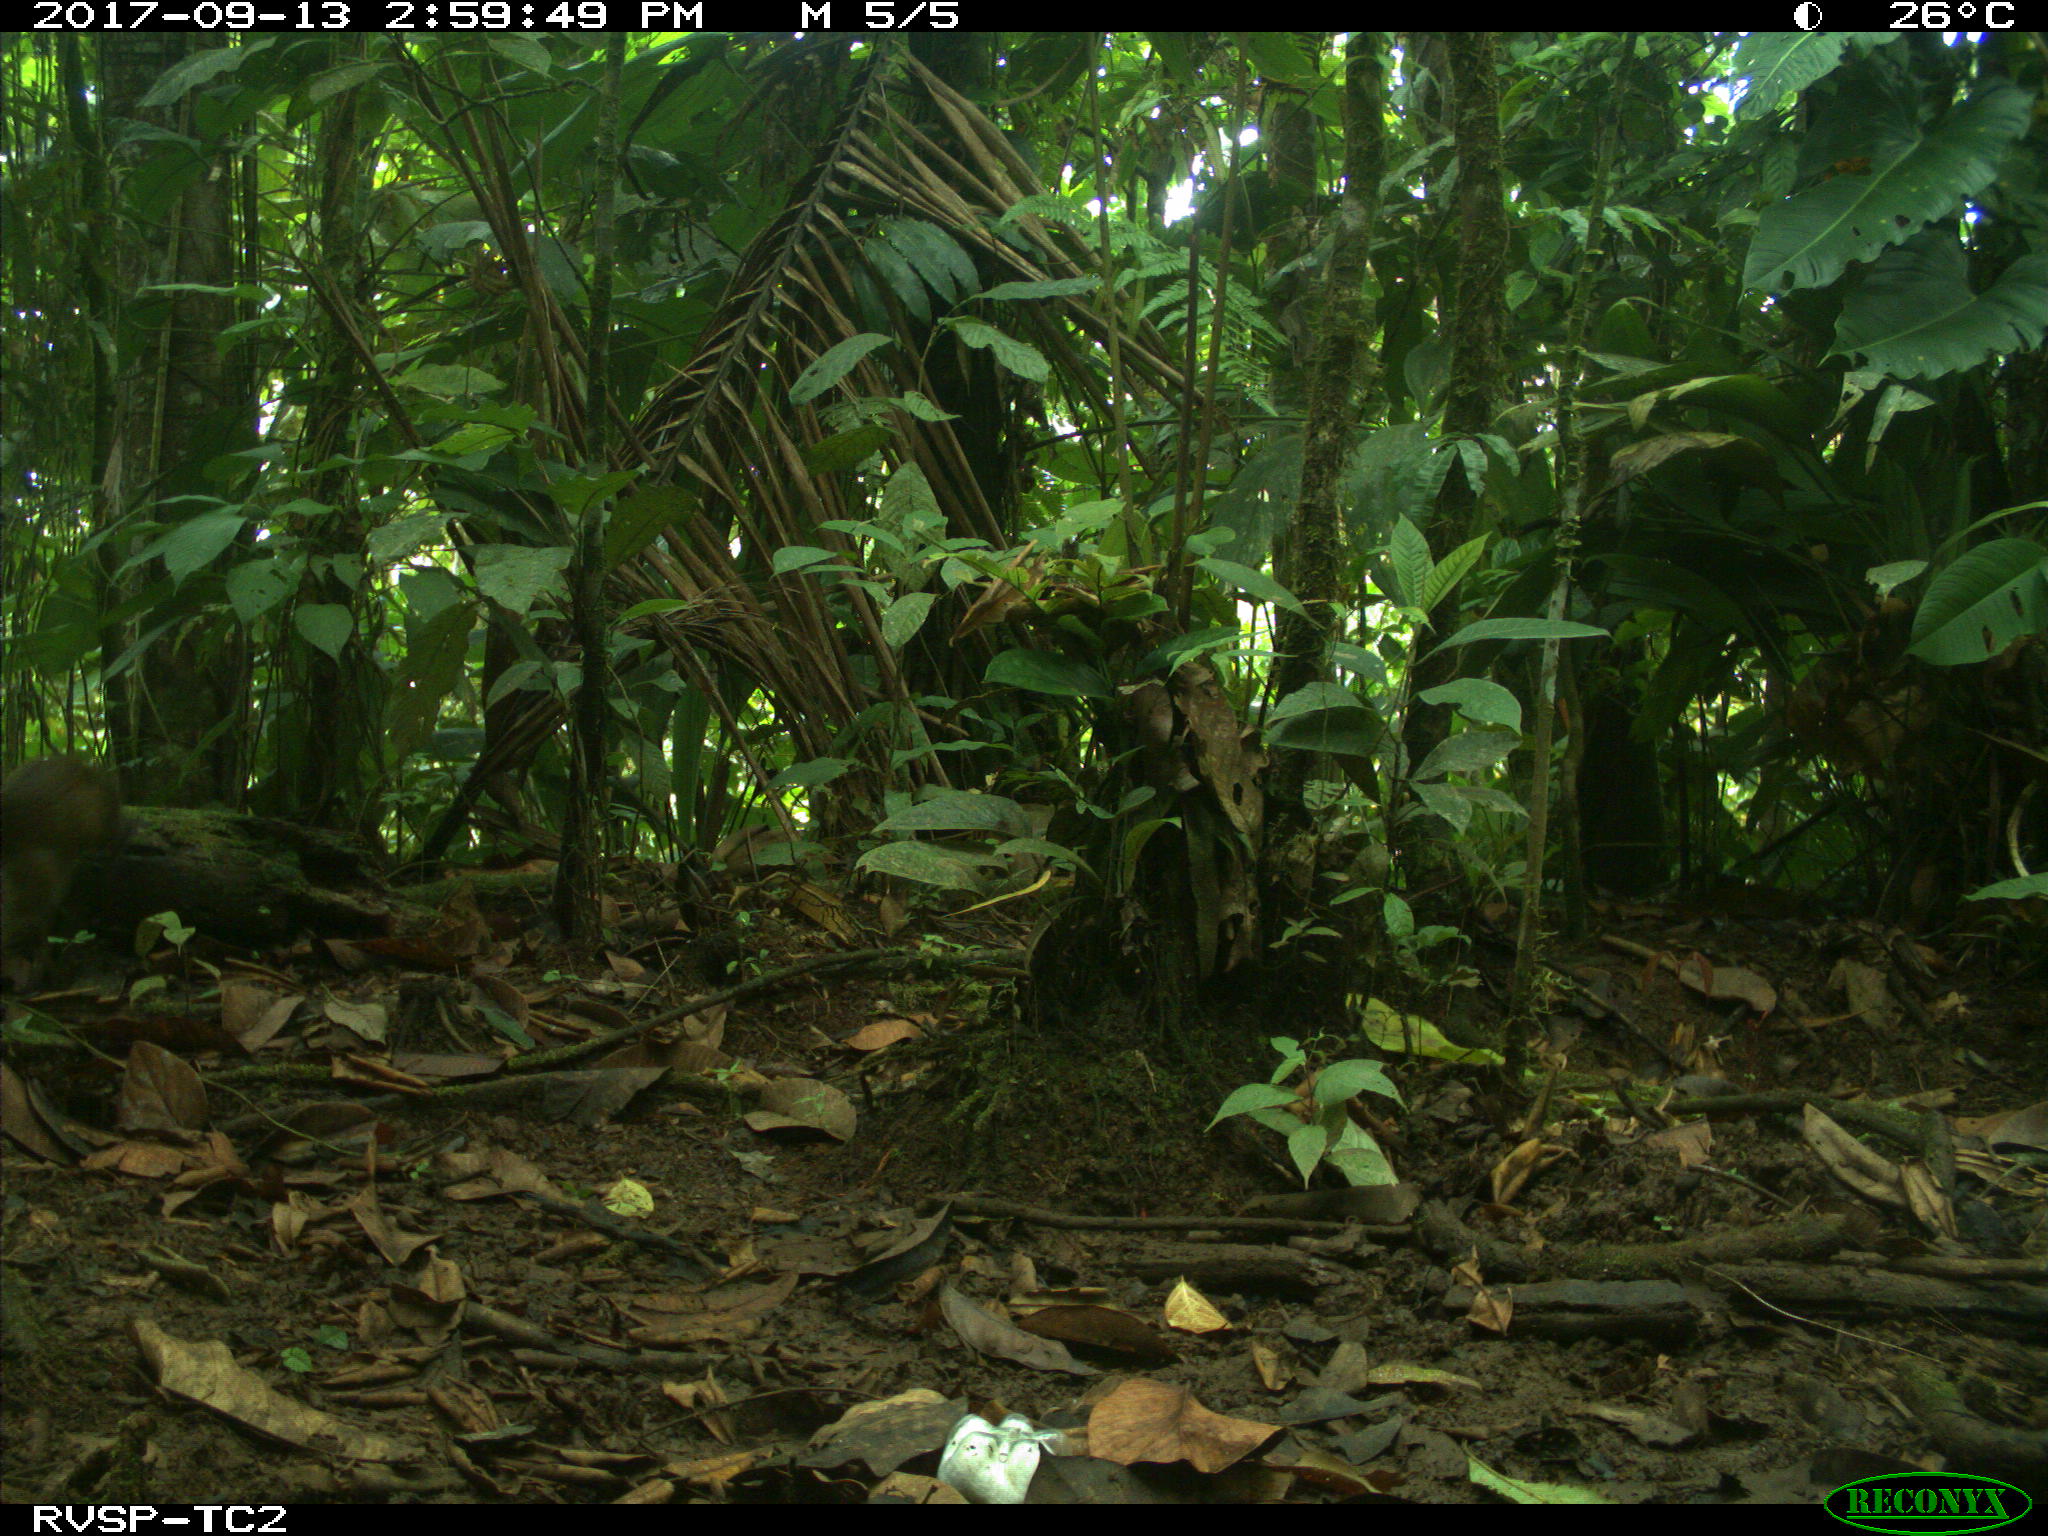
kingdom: Animalia
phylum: Chordata
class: Mammalia
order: Rodentia
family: Dasyproctidae
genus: Dasyprocta
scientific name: Dasyprocta punctata
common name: Central american agouti
